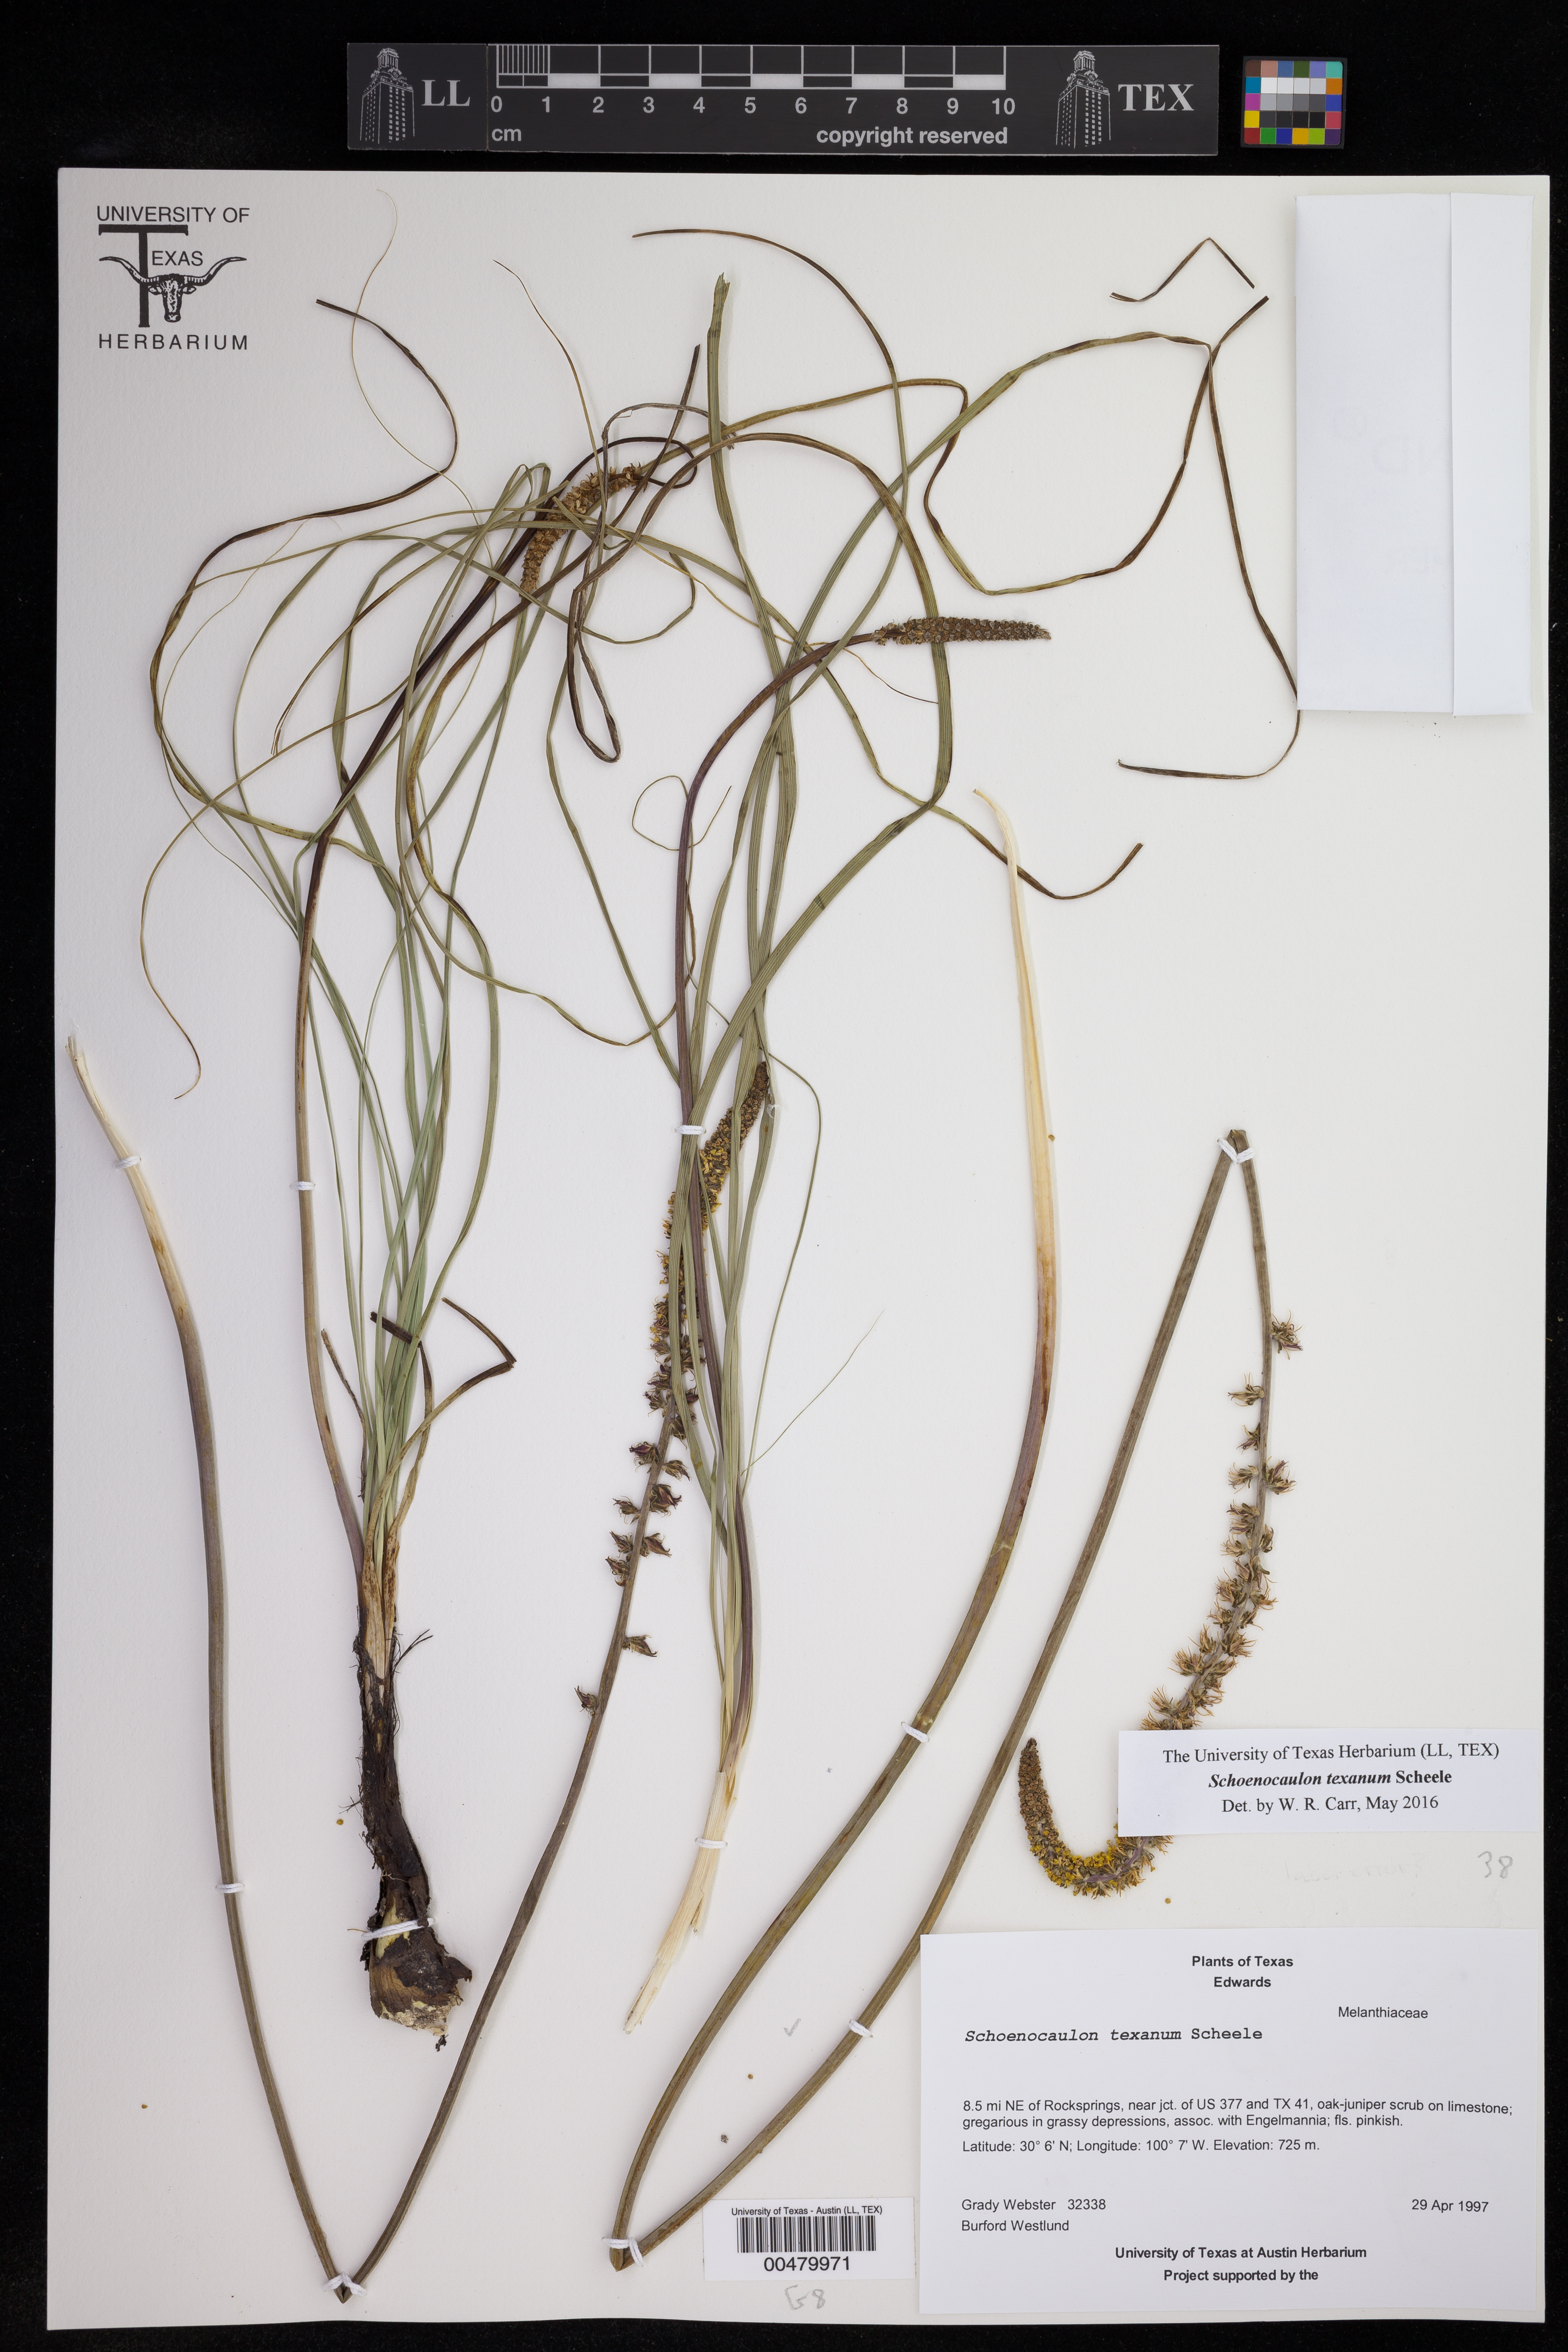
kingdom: Plantae
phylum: Tracheophyta
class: Liliopsida
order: Liliales
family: Melanthiaceae
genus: Schoenocaulon
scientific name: Schoenocaulon texanum
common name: Texas feather-shank
